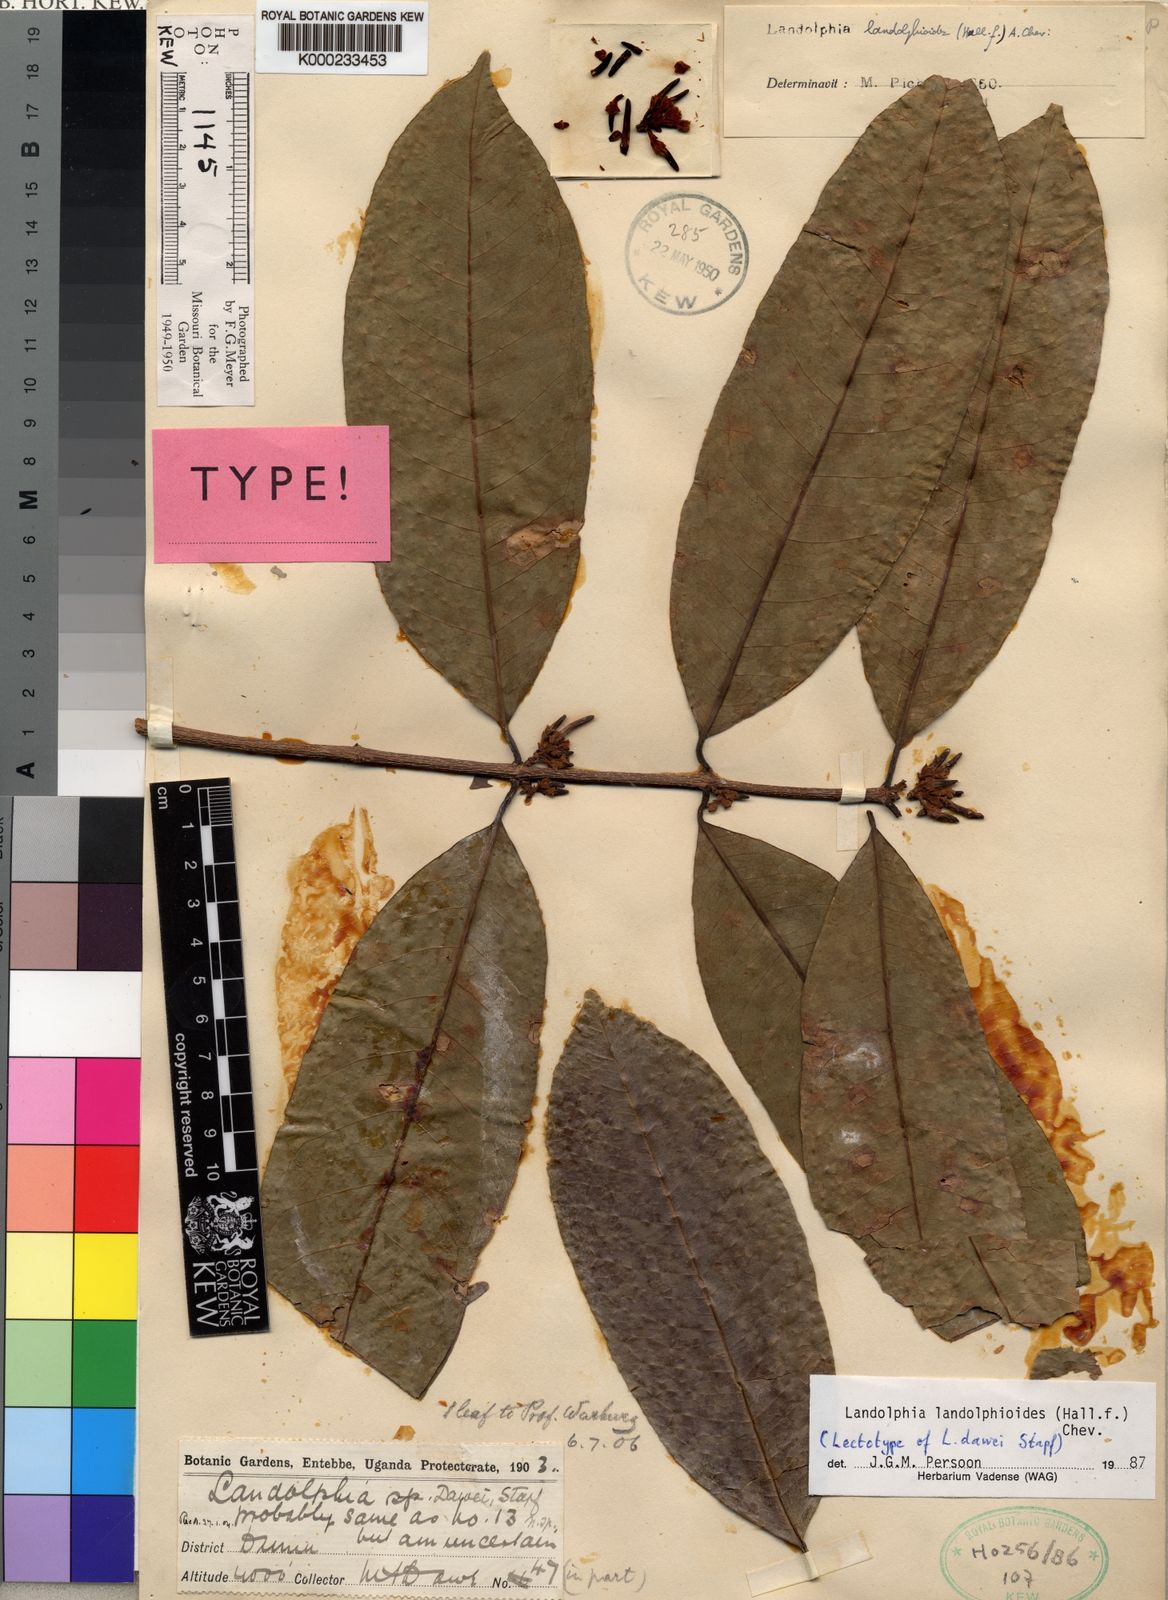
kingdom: Plantae
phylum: Tracheophyta
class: Magnoliopsida
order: Gentianales
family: Apocynaceae
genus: Landolphia
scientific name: Landolphia landolphioides
